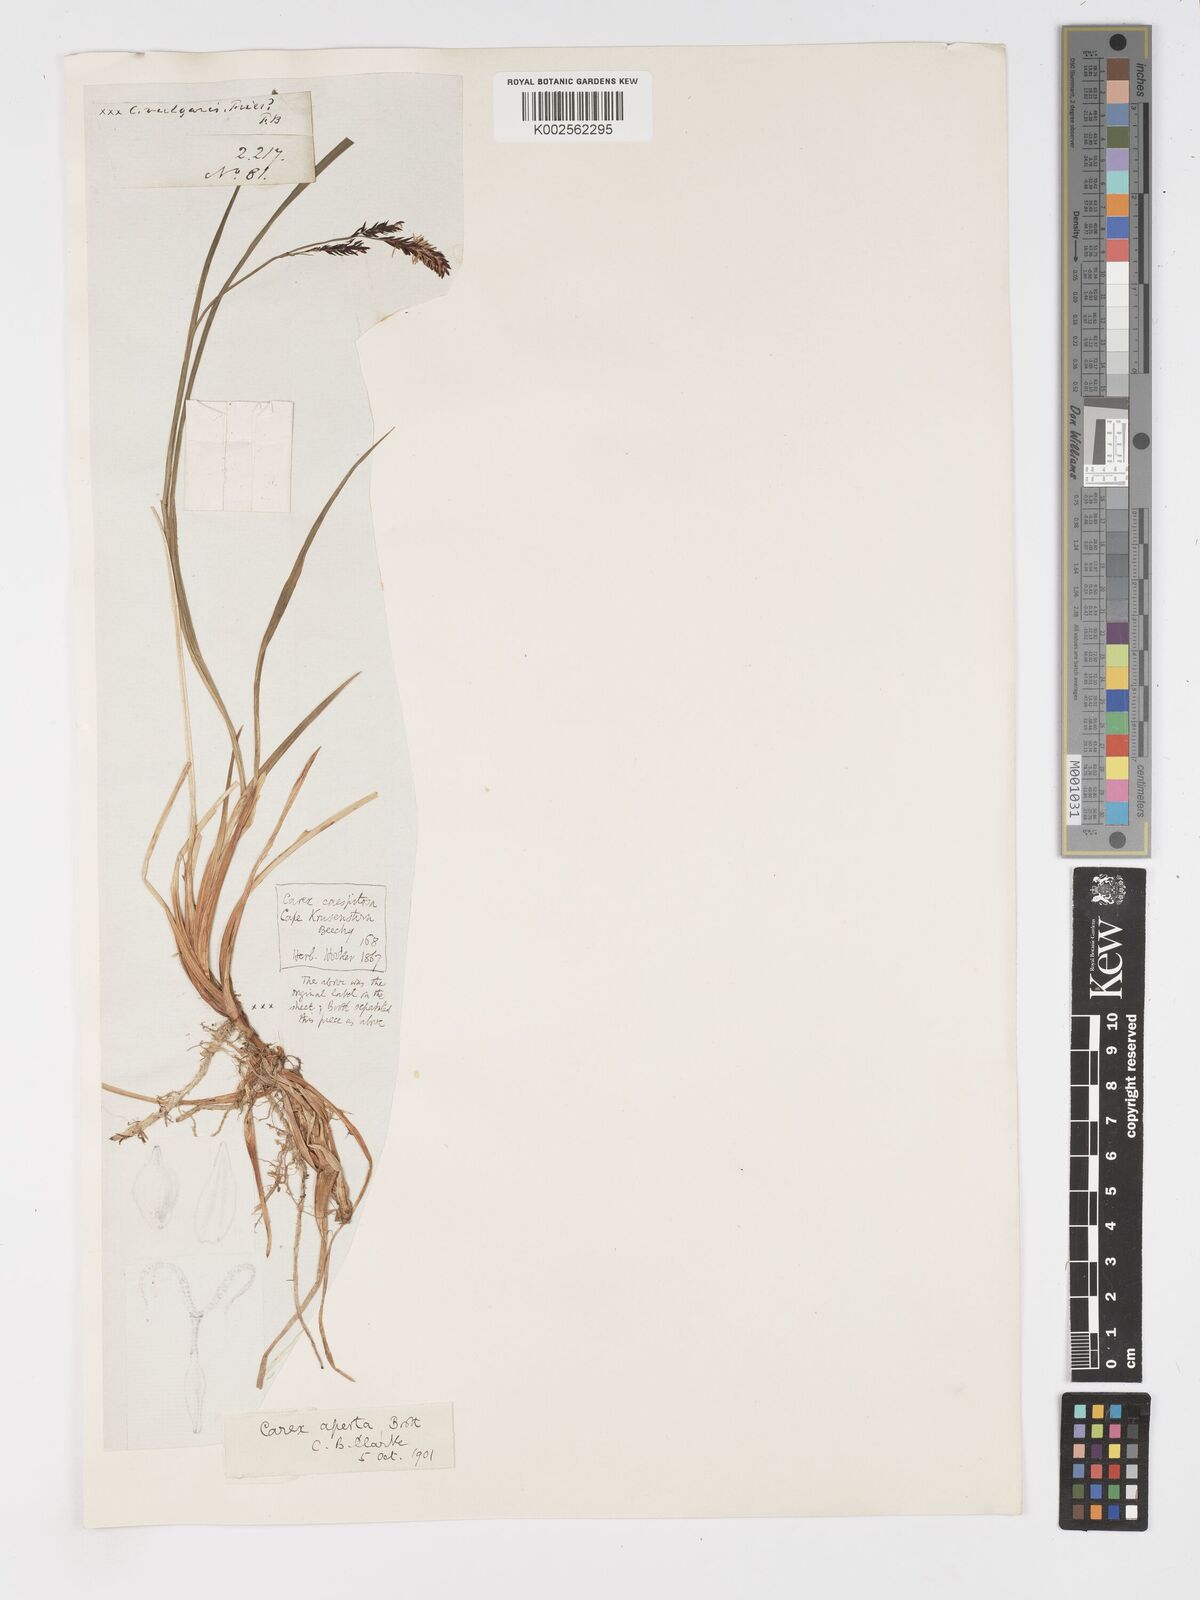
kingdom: Plantae
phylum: Tracheophyta
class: Liliopsida
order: Poales
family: Cyperaceae
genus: Carex
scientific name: Carex aperta
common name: Columbia sedge
